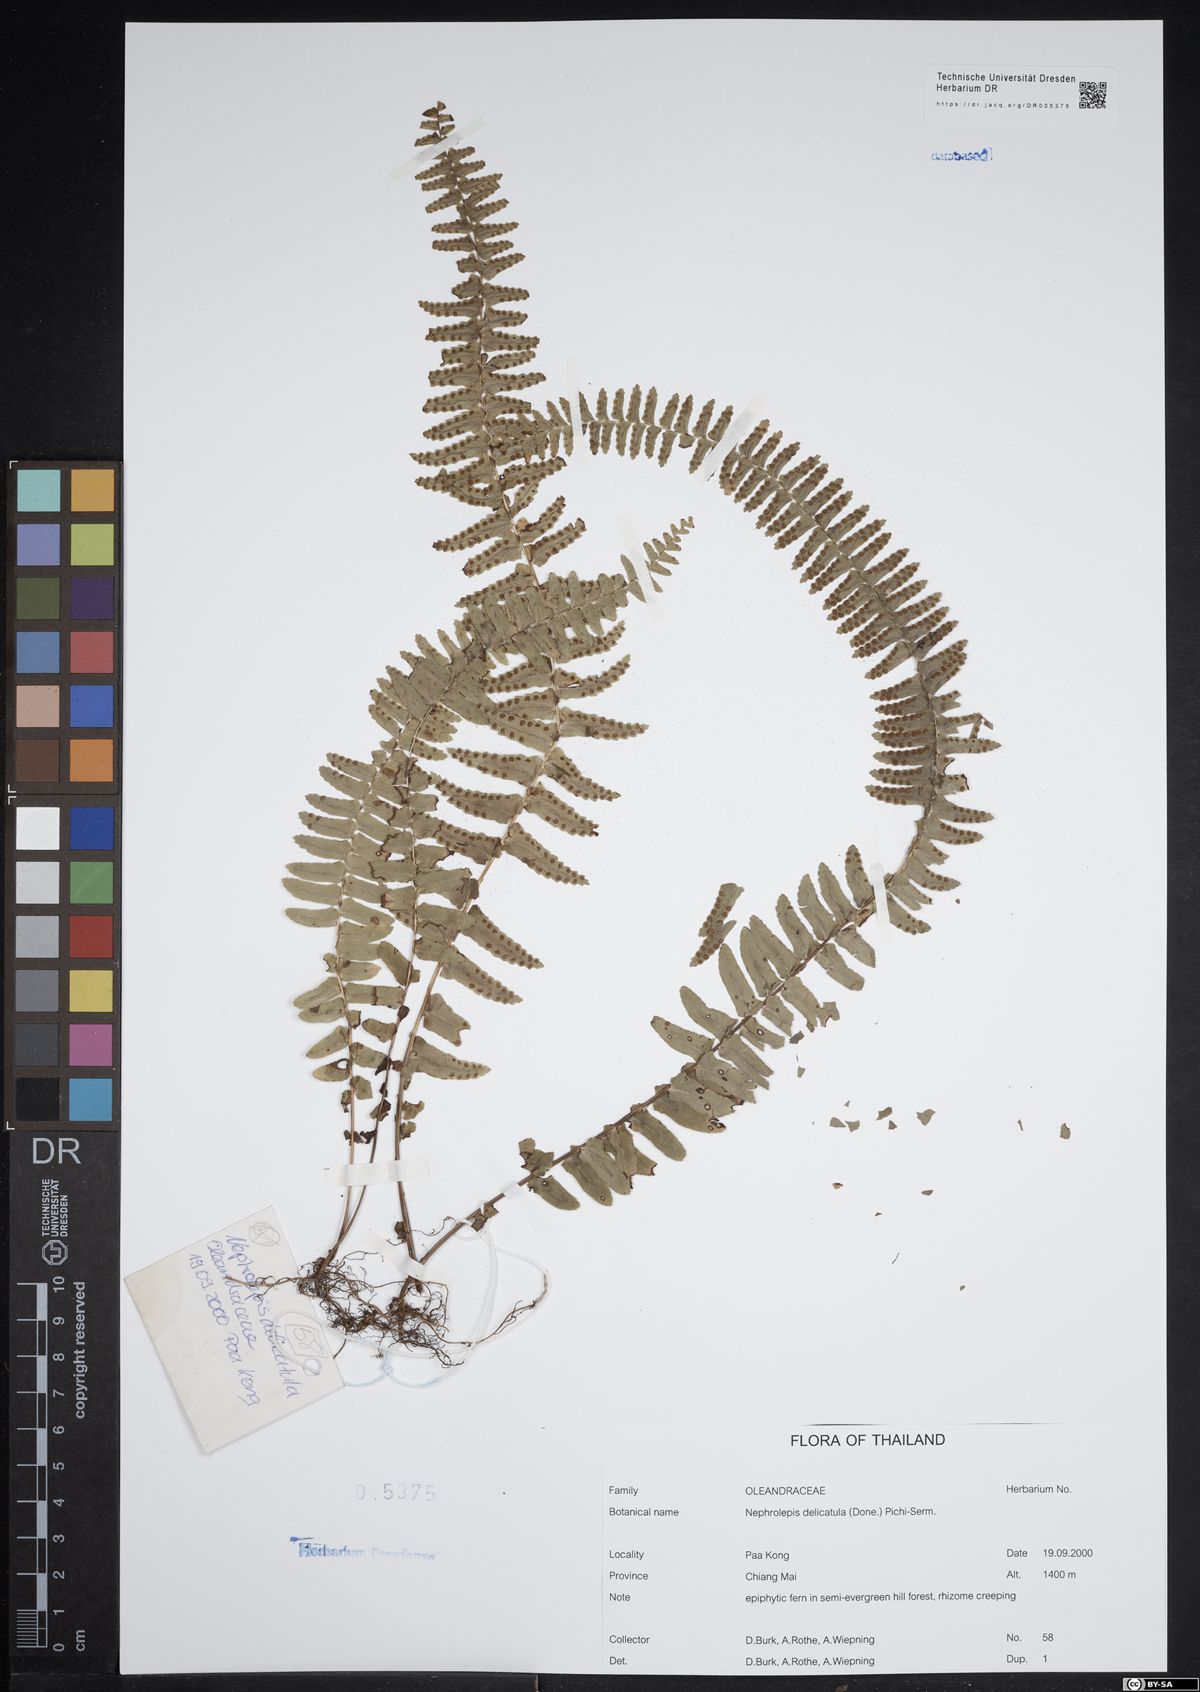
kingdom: Plantae
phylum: Tracheophyta
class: Polypodiopsida
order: Polypodiales
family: Nephrolepidaceae
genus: Nephrolepis
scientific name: Nephrolepis delicatula
